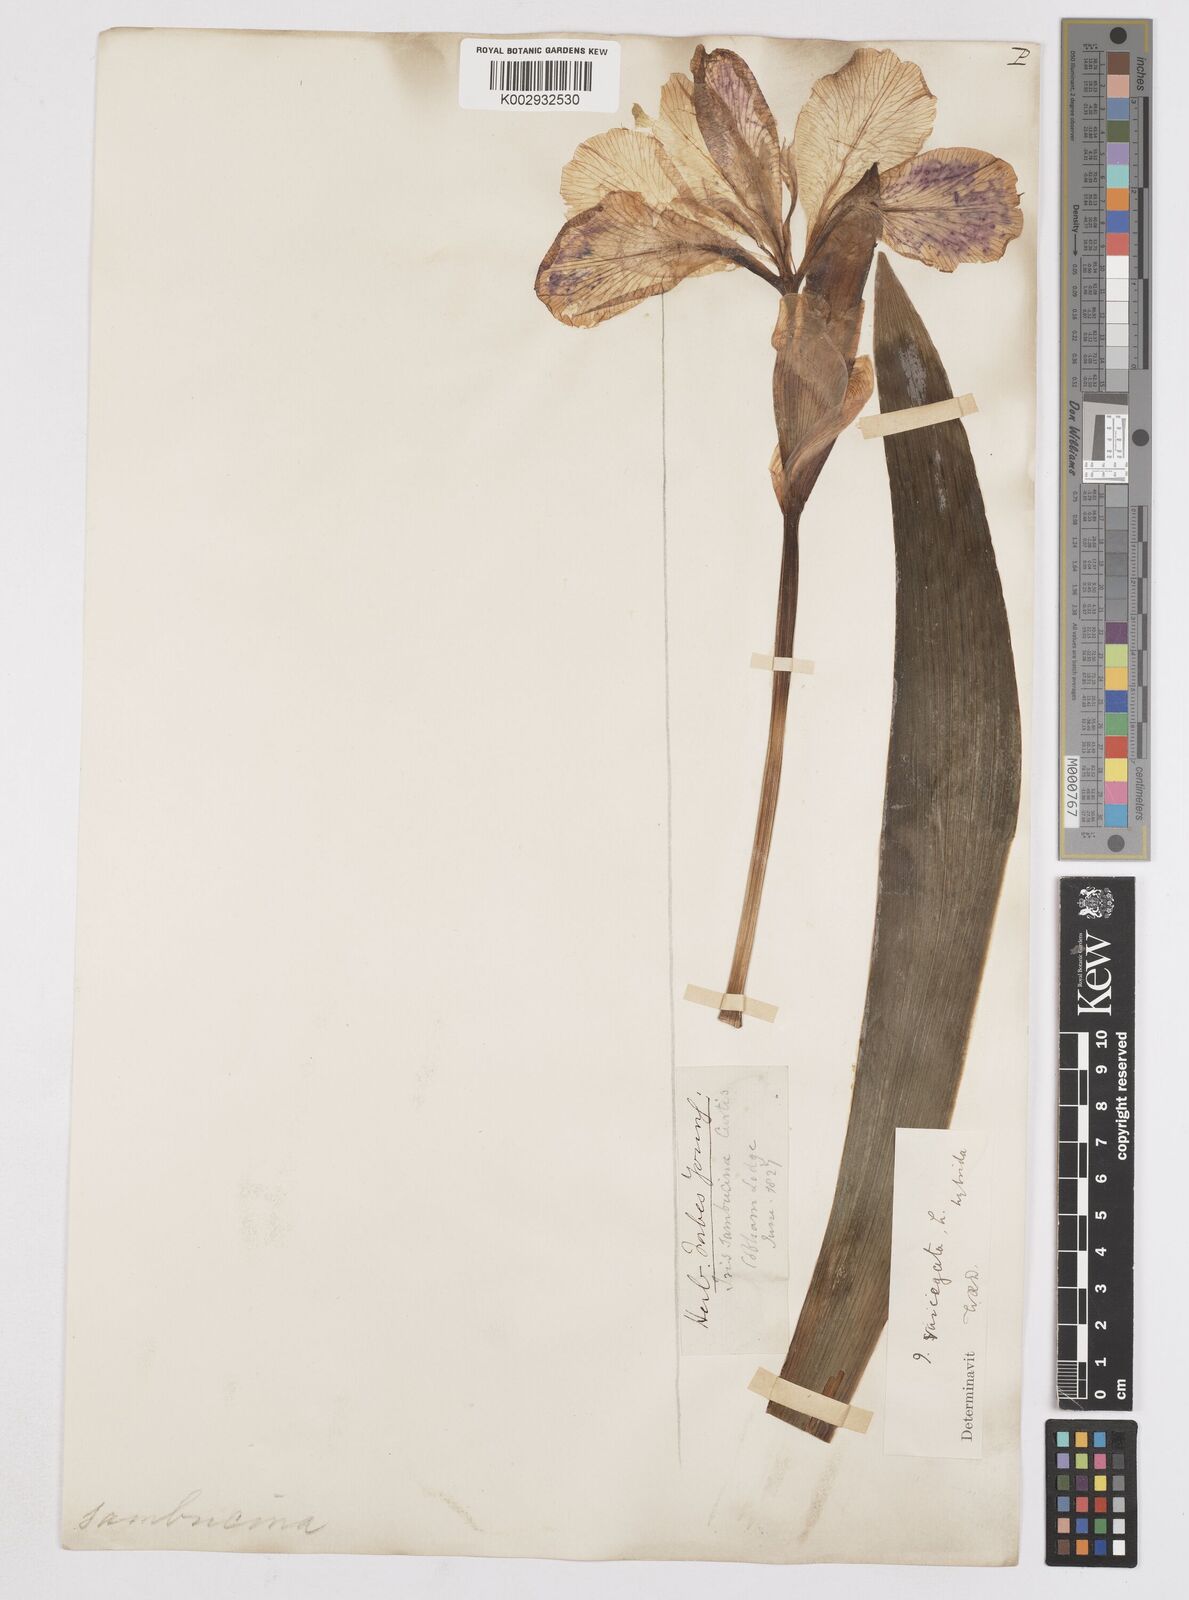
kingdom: Plantae
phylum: Tracheophyta
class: Liliopsida
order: Asparagales
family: Iridaceae
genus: Iris
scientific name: Iris variegata
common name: Hungarian iris
